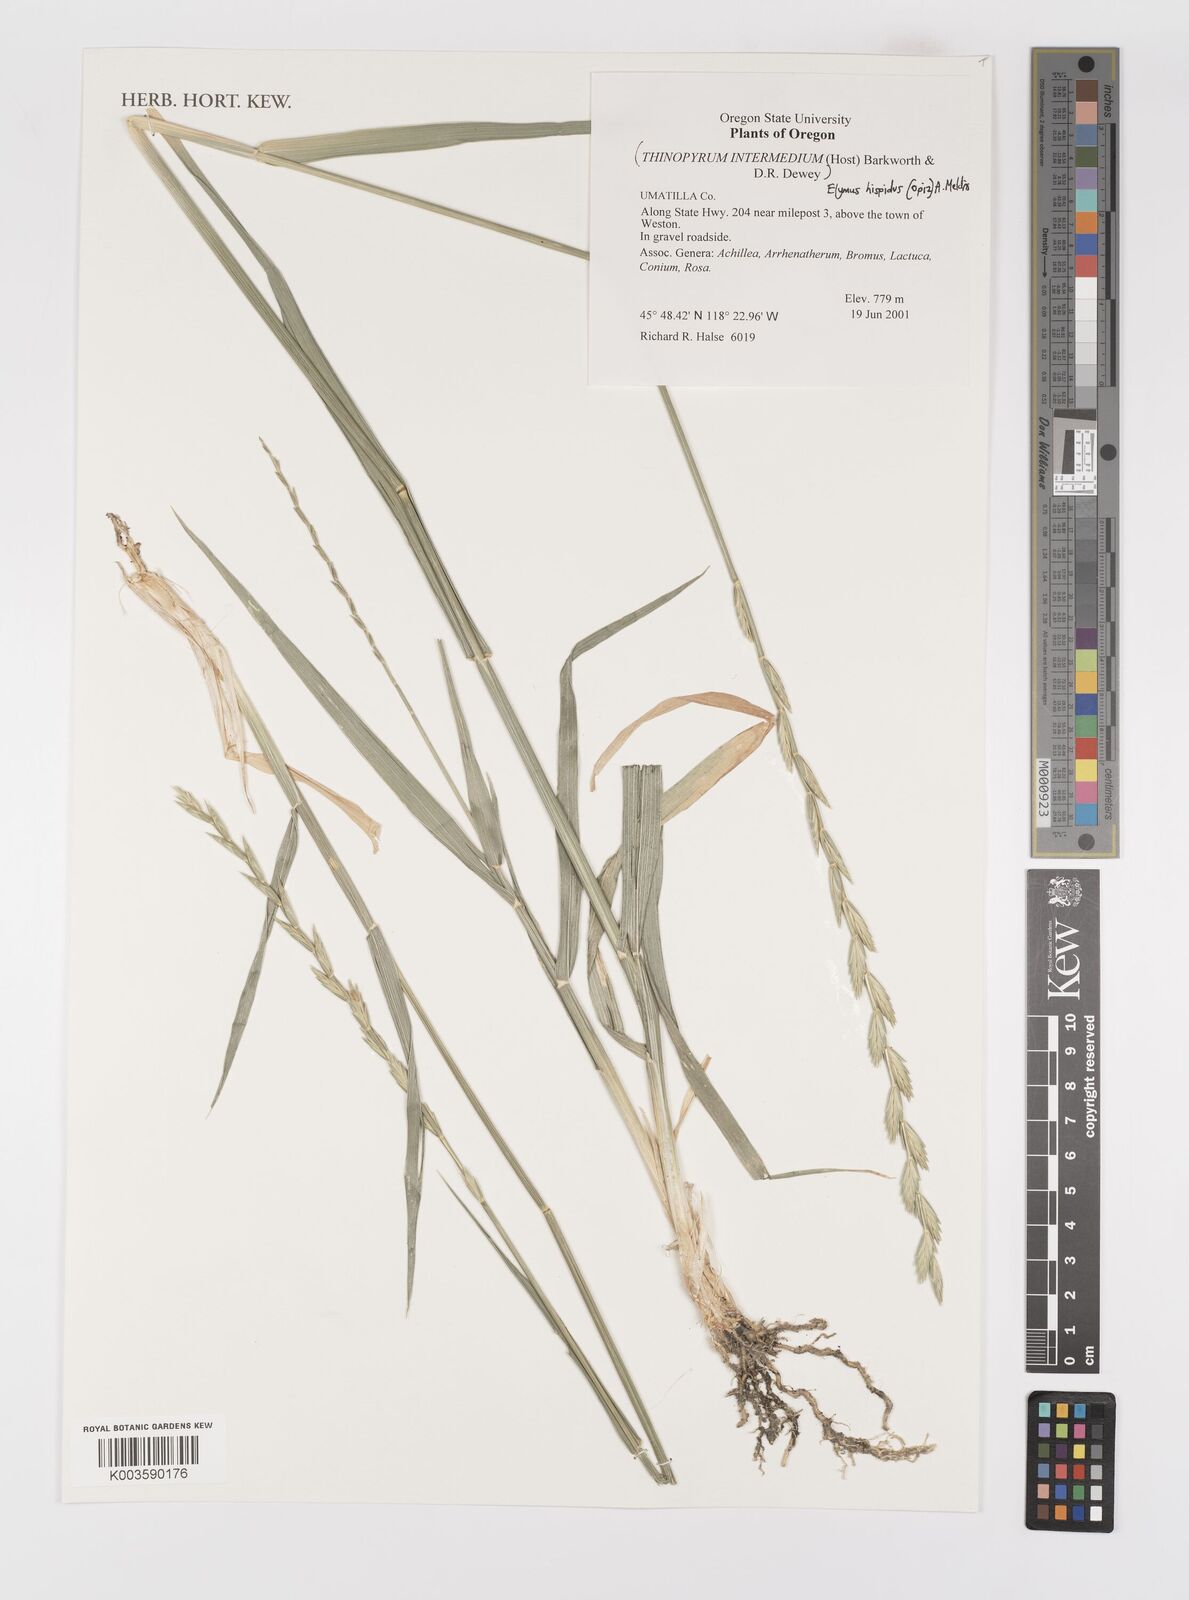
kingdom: Plantae
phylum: Tracheophyta
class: Liliopsida
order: Poales
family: Poaceae
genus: Thinopyrum
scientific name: Thinopyrum intermedium
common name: Intermediate wheatgrass
